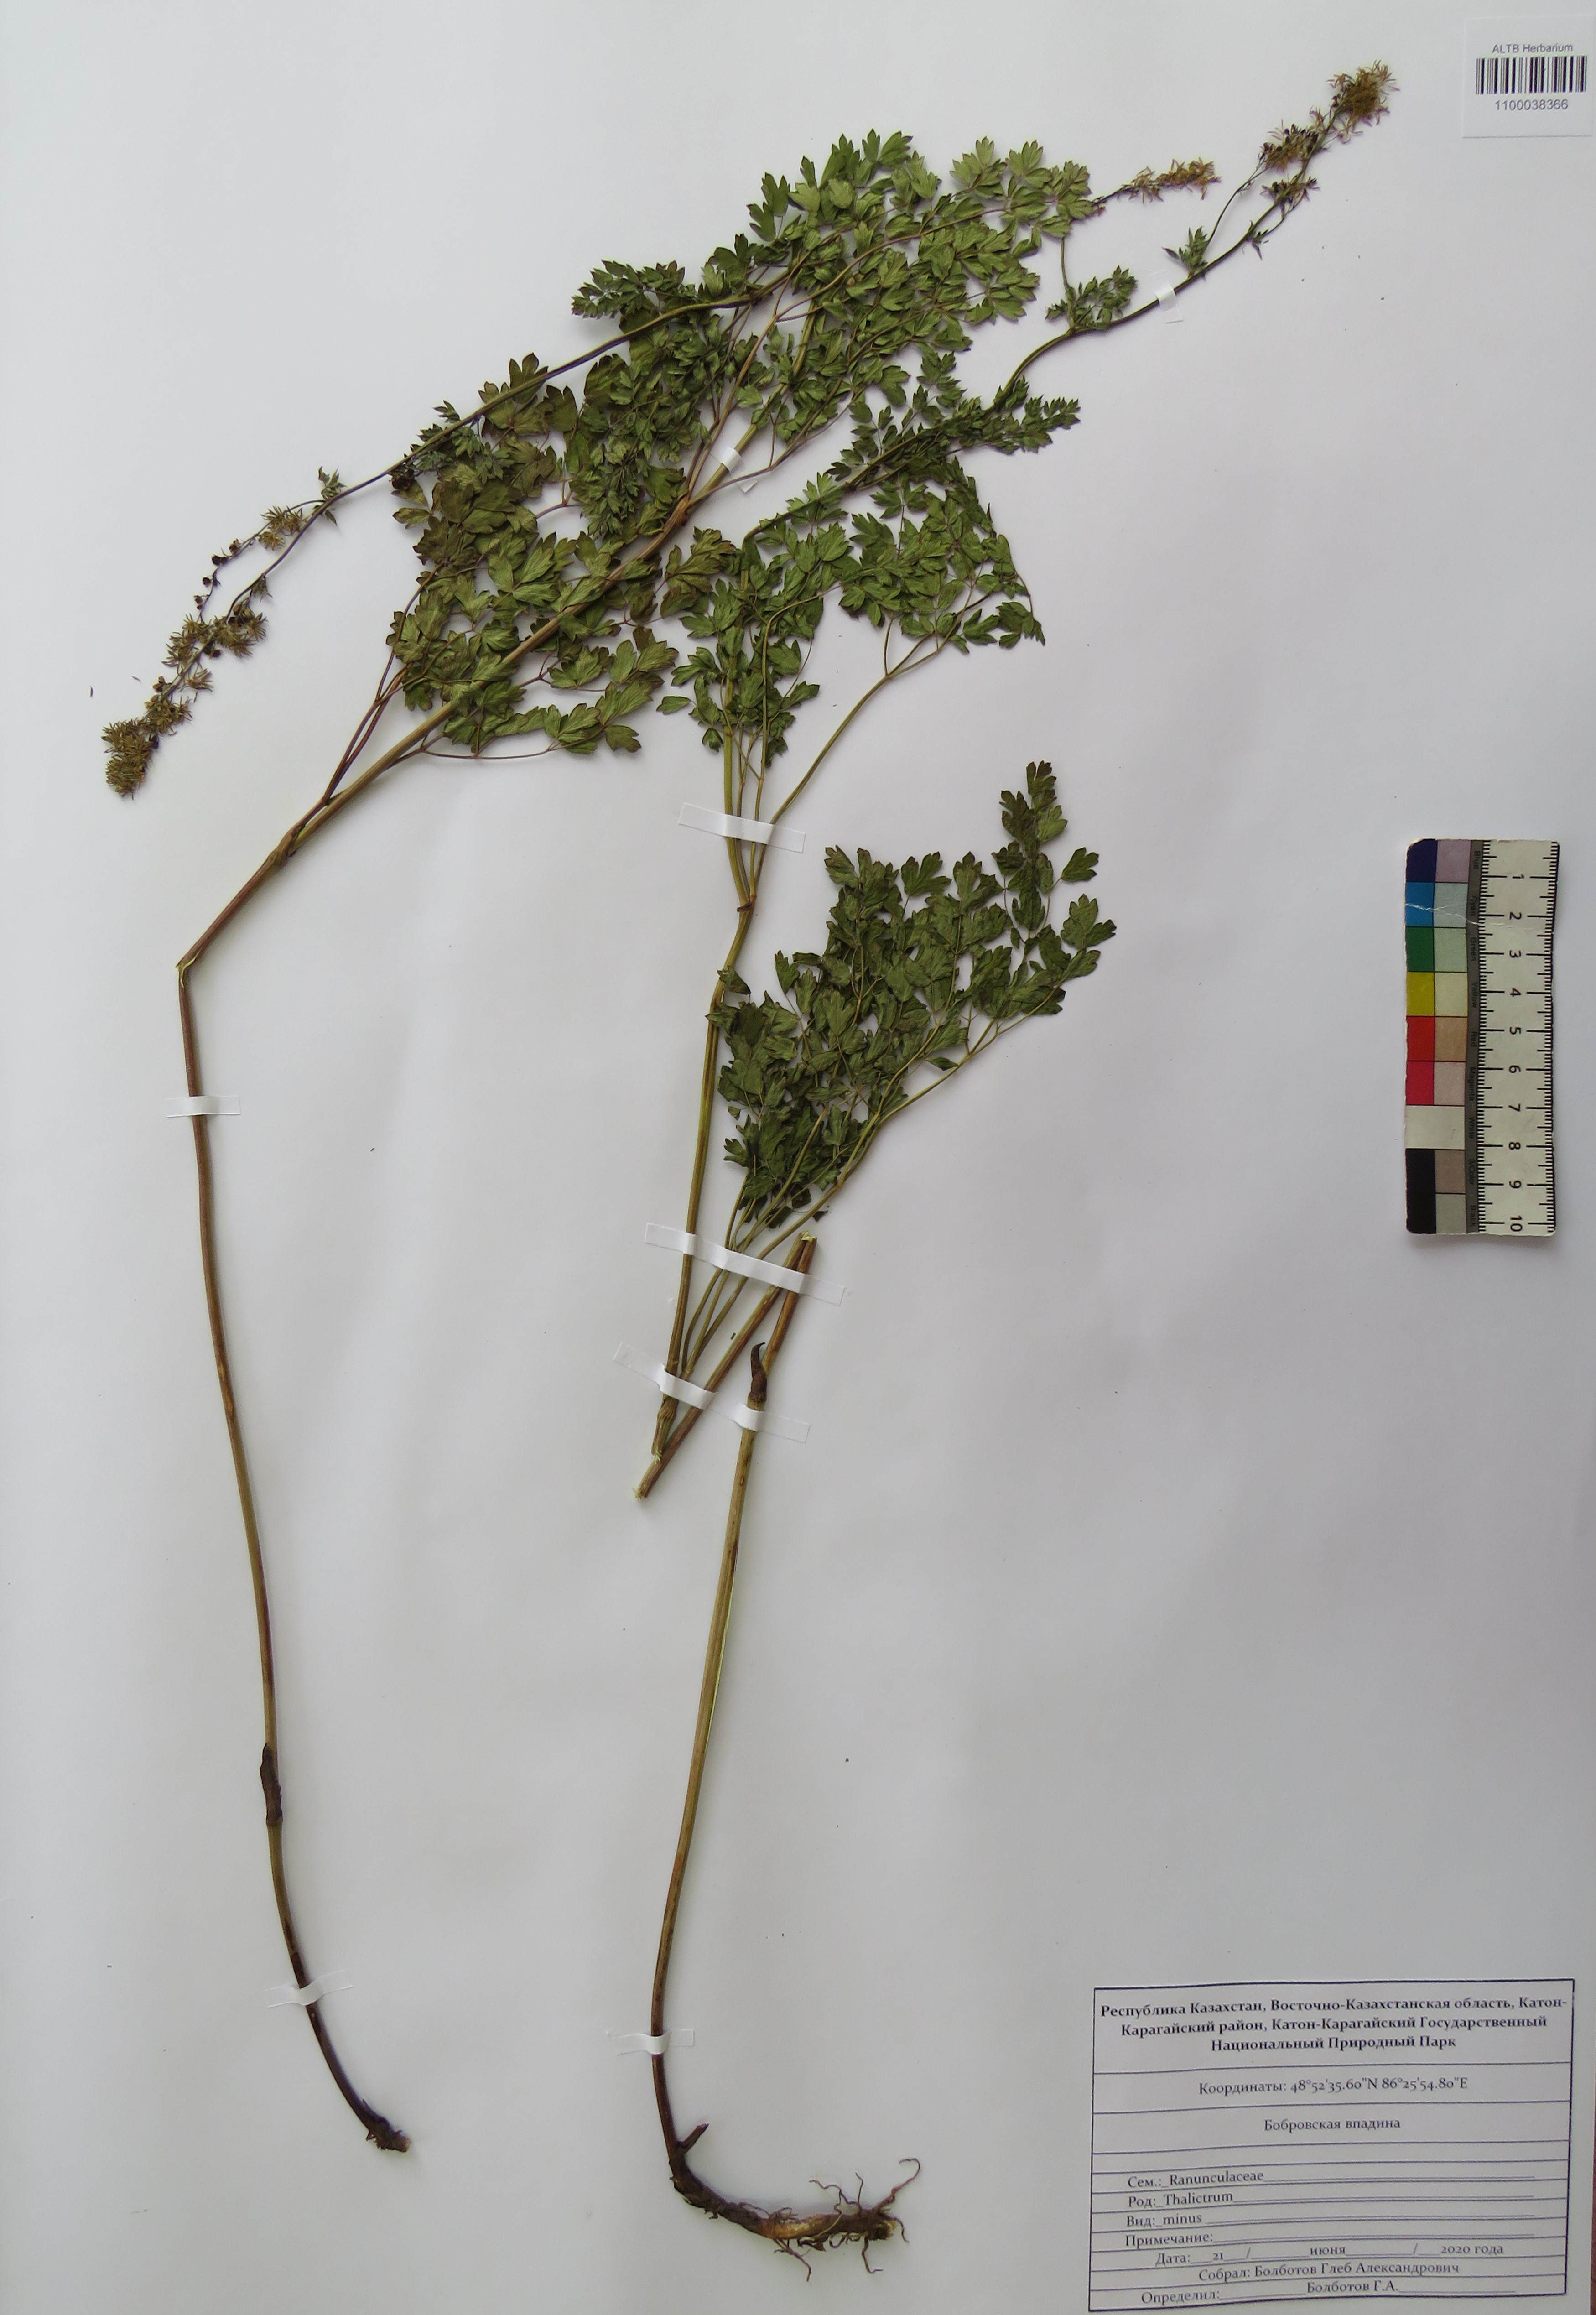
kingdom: Plantae
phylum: Tracheophyta
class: Magnoliopsida
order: Ranunculales
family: Ranunculaceae
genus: Thalictrum
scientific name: Thalictrum minus
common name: Lesser meadow-rue
